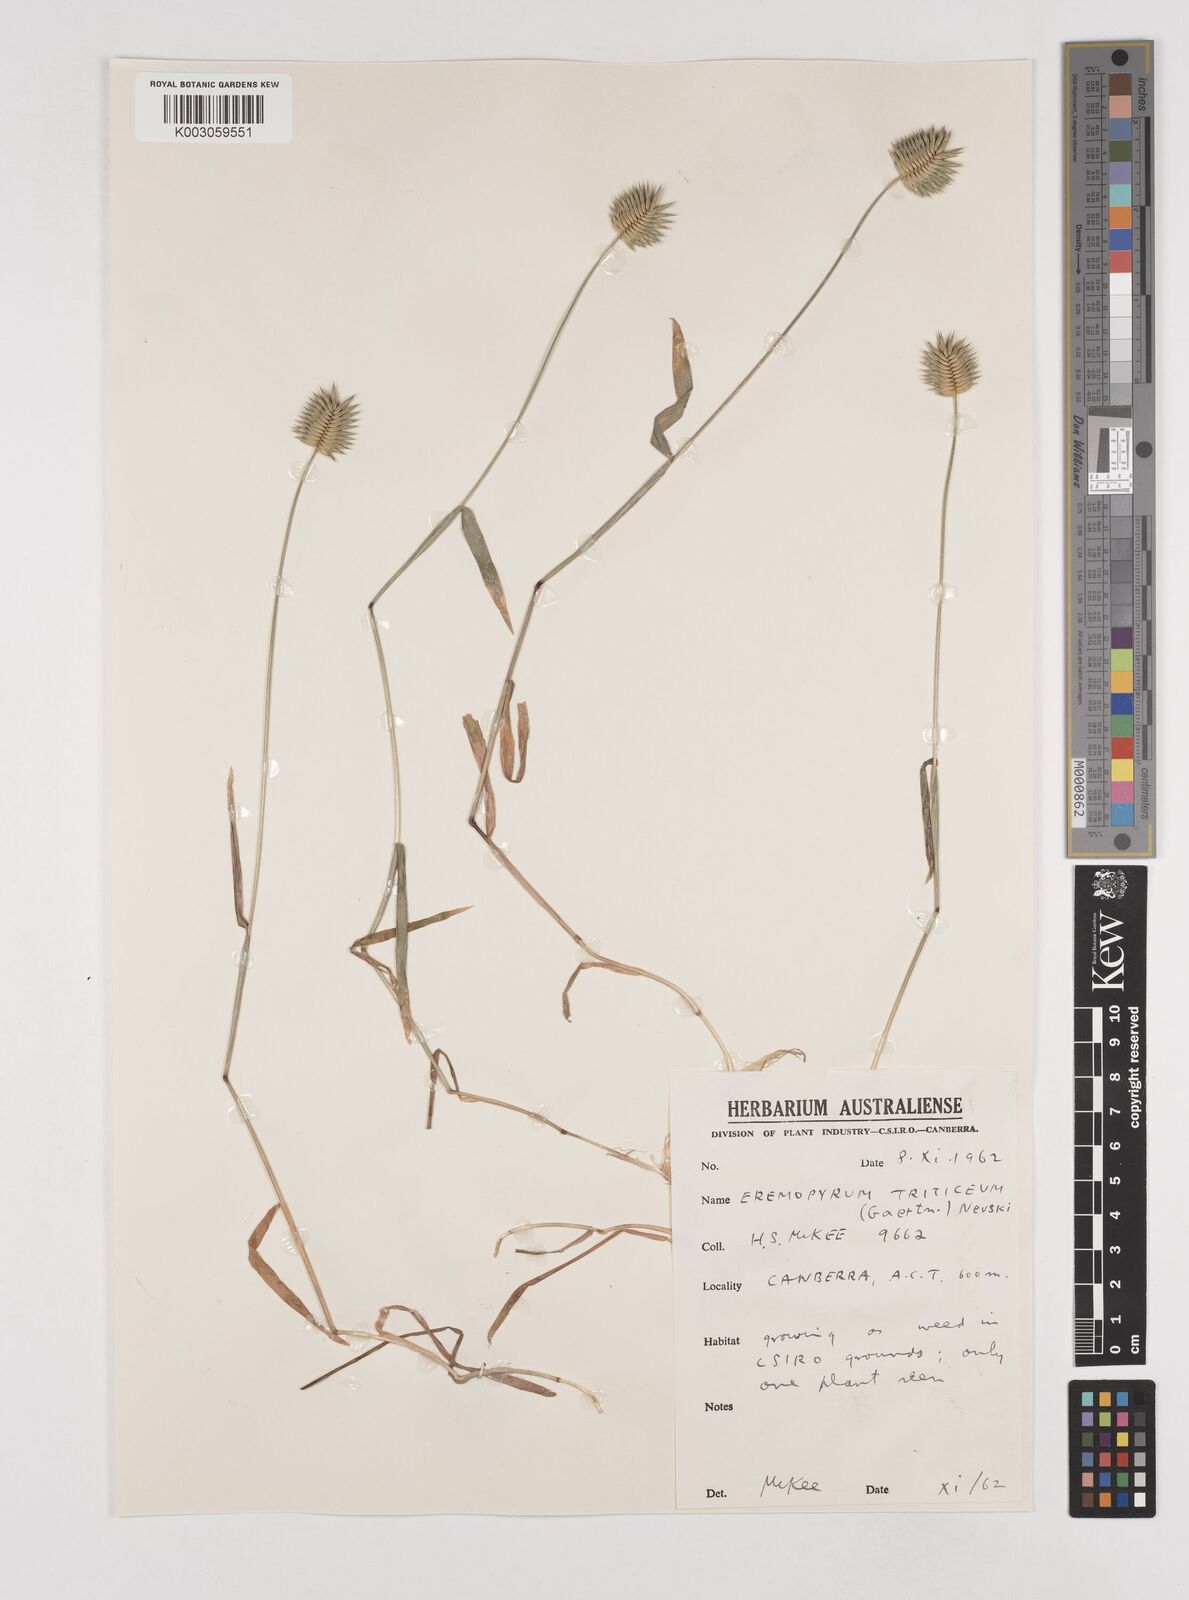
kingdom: Plantae
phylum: Tracheophyta
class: Liliopsida
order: Poales
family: Poaceae
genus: Eremopyrum
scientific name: Eremopyrum triticeum
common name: Annual wheatgrass
